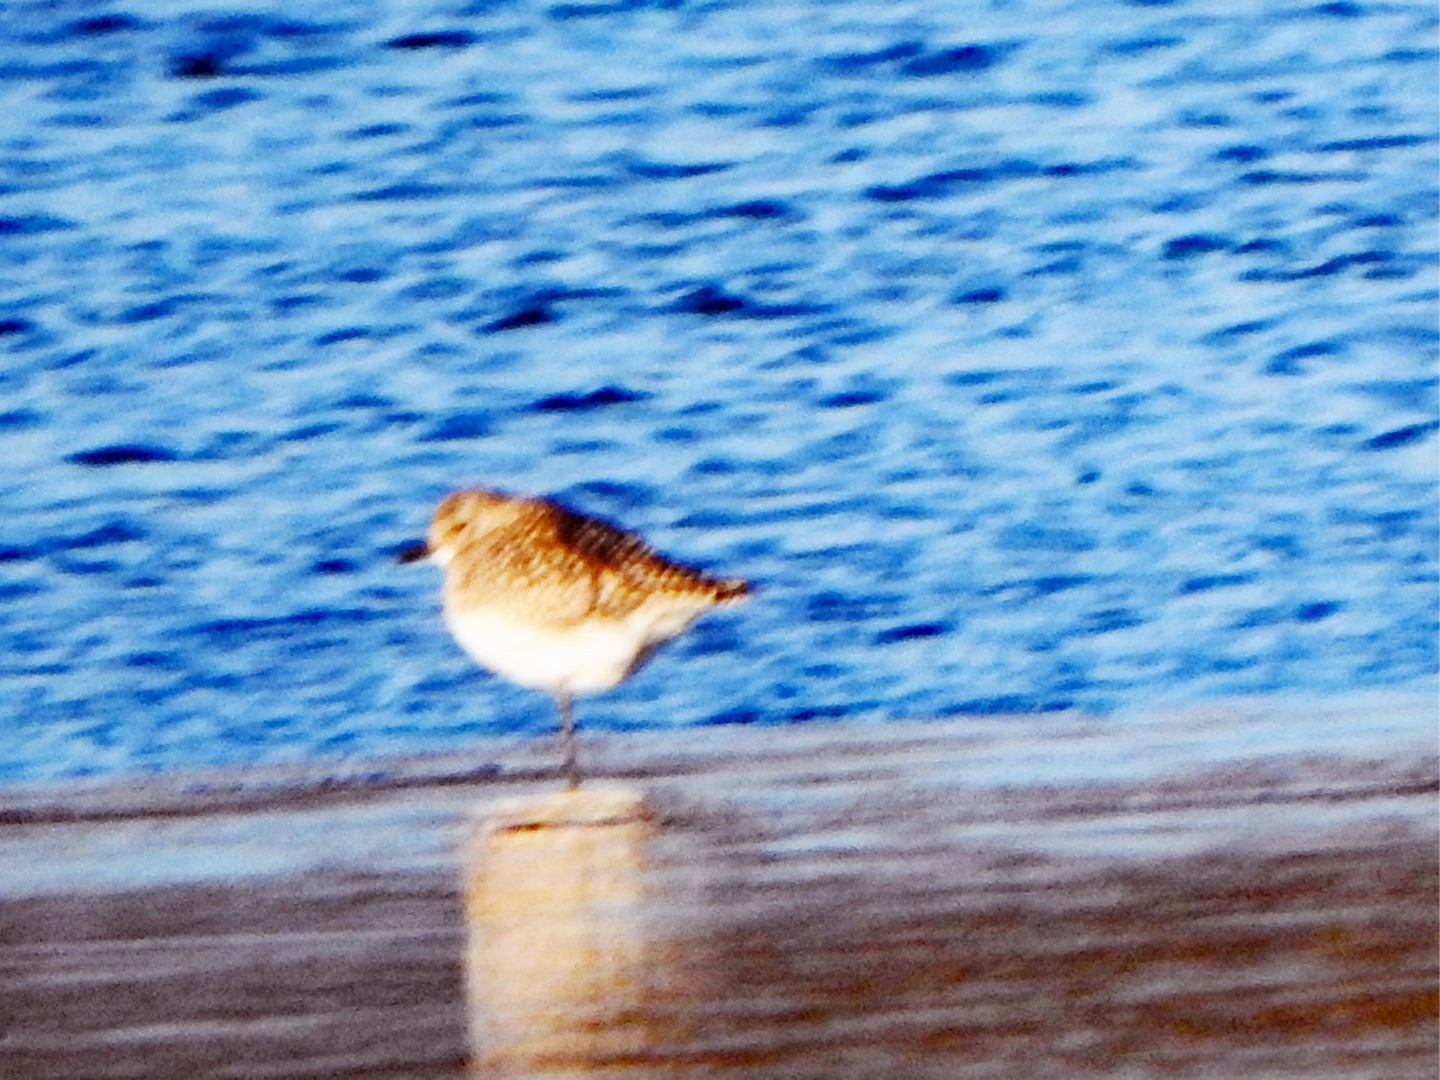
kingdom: Animalia
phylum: Chordata
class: Aves
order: Charadriiformes
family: Charadriidae
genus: Pluvialis
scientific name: Pluvialis squatarola
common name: Strandhjejle
